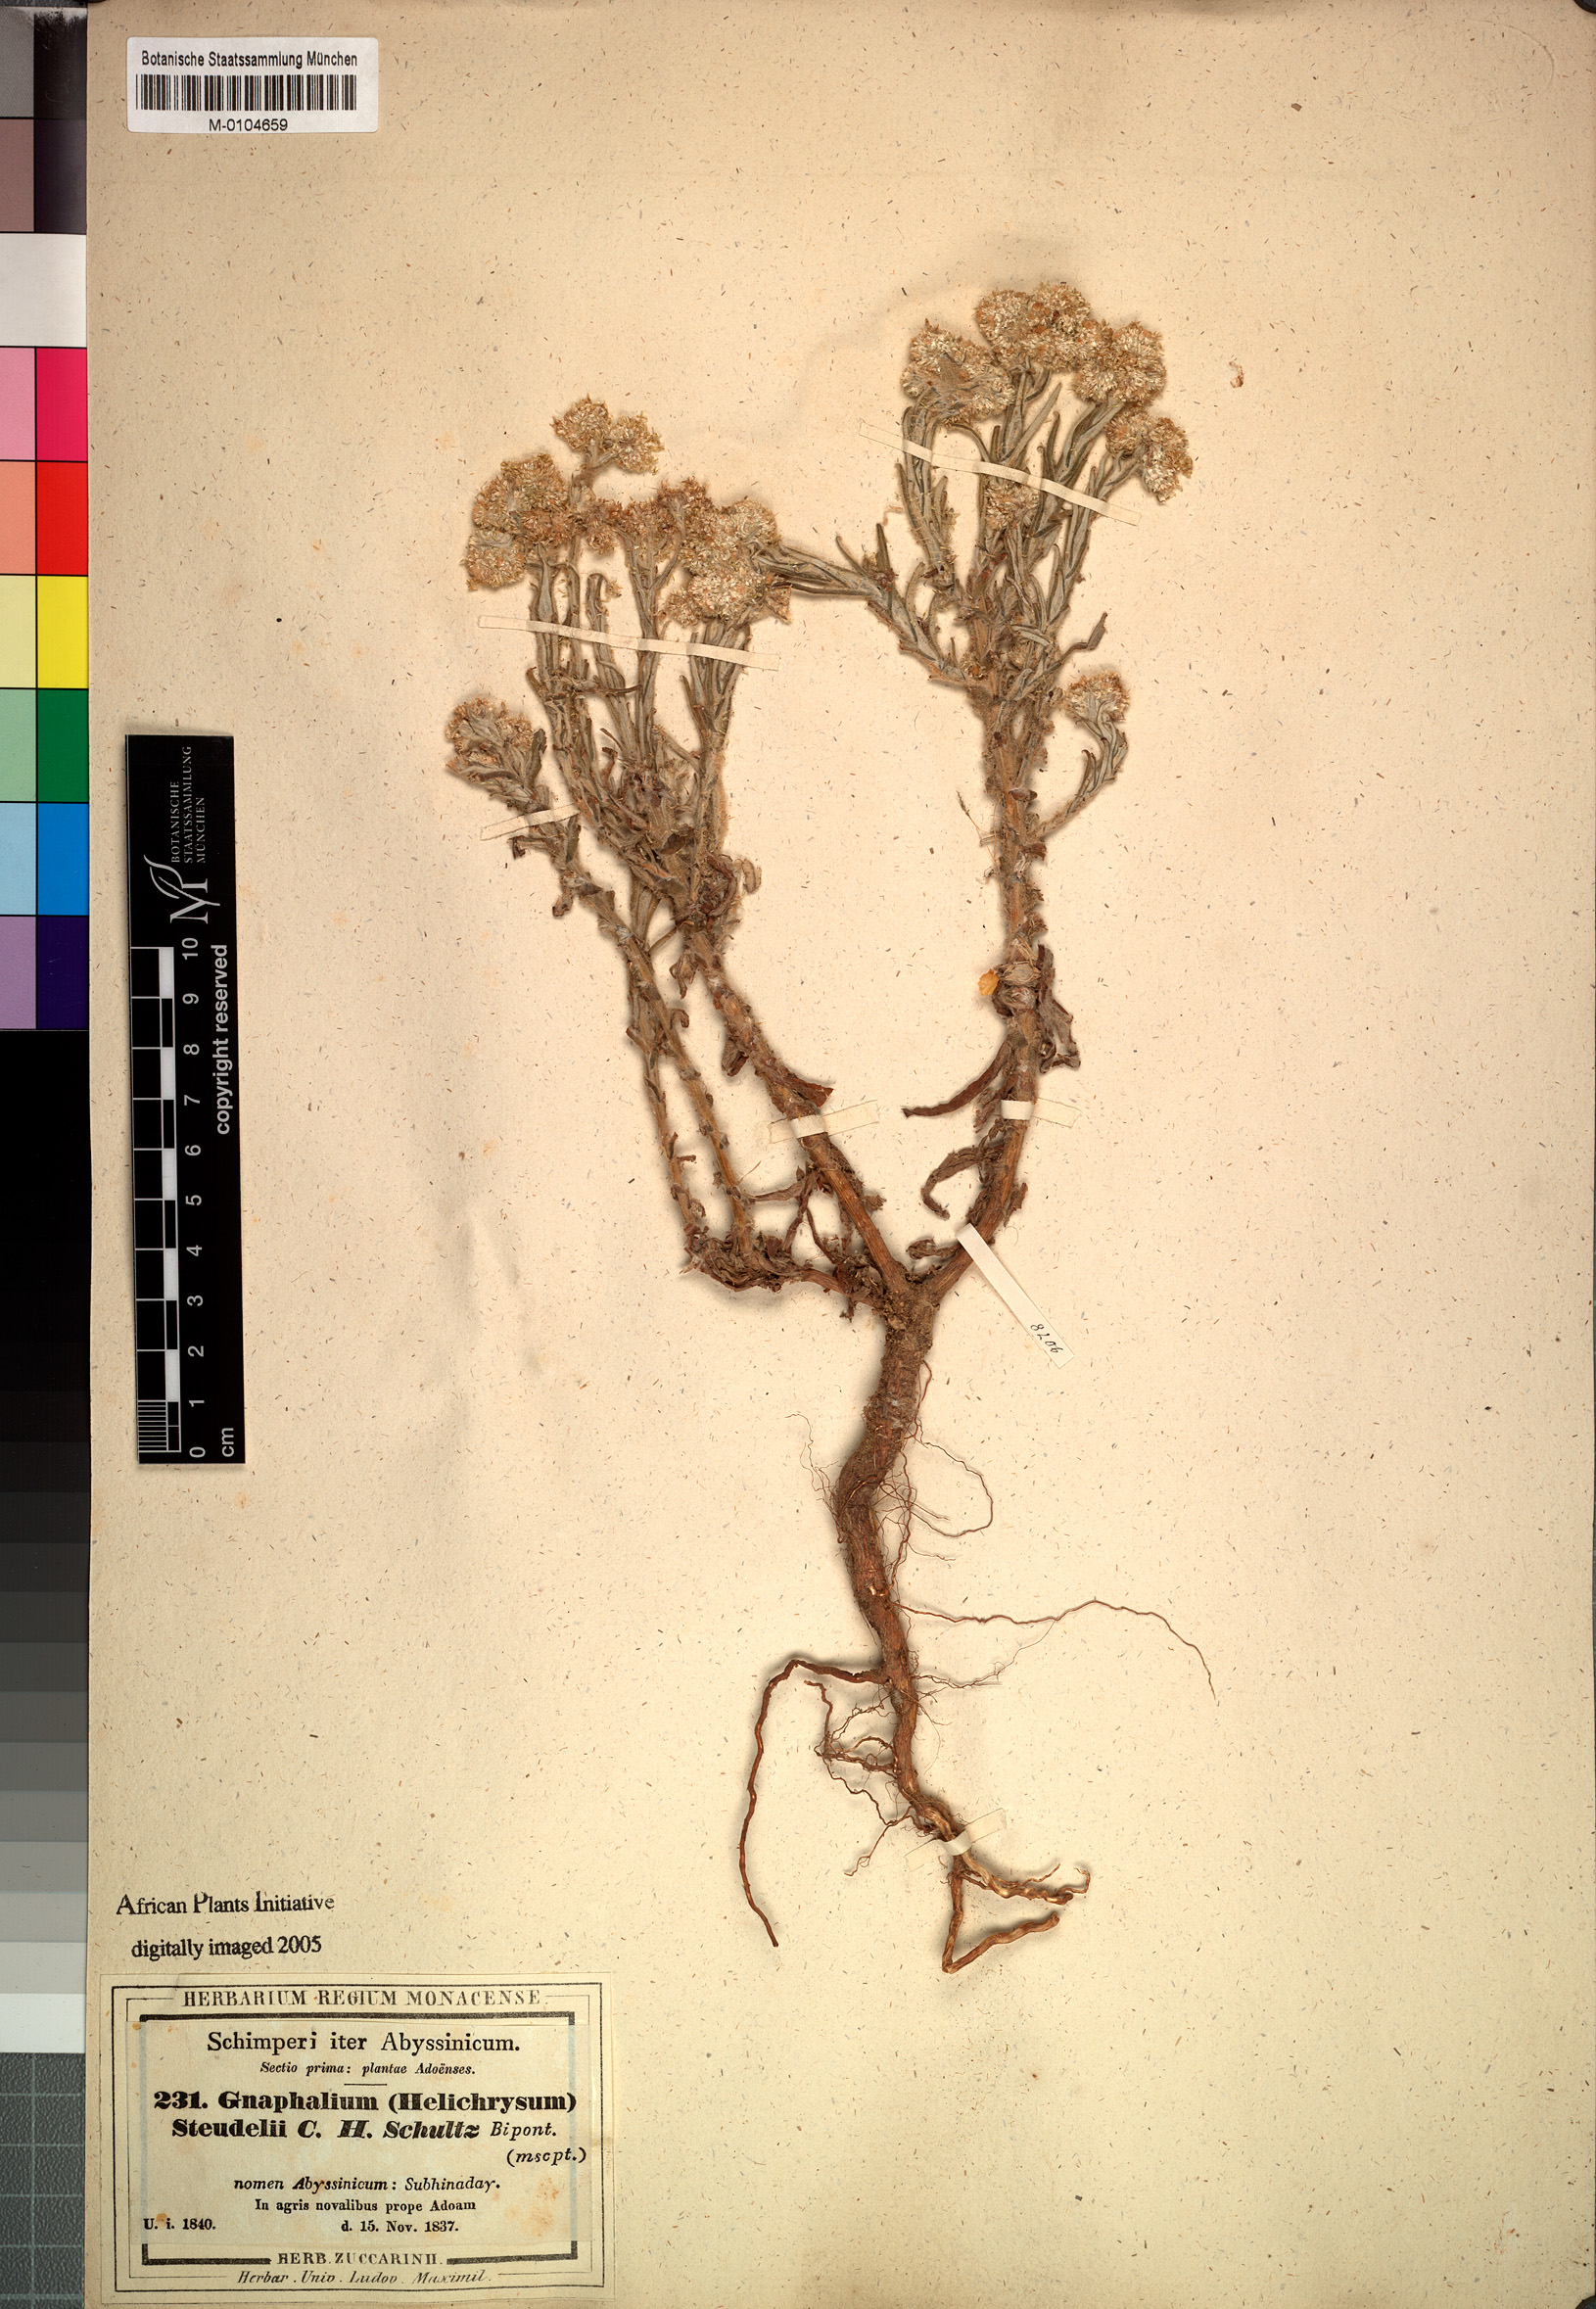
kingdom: Plantae
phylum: Tracheophyta
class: Magnoliopsida
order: Asterales
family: Asteraceae
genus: Pseudognaphalium
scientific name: Pseudognaphalium oligandrum
